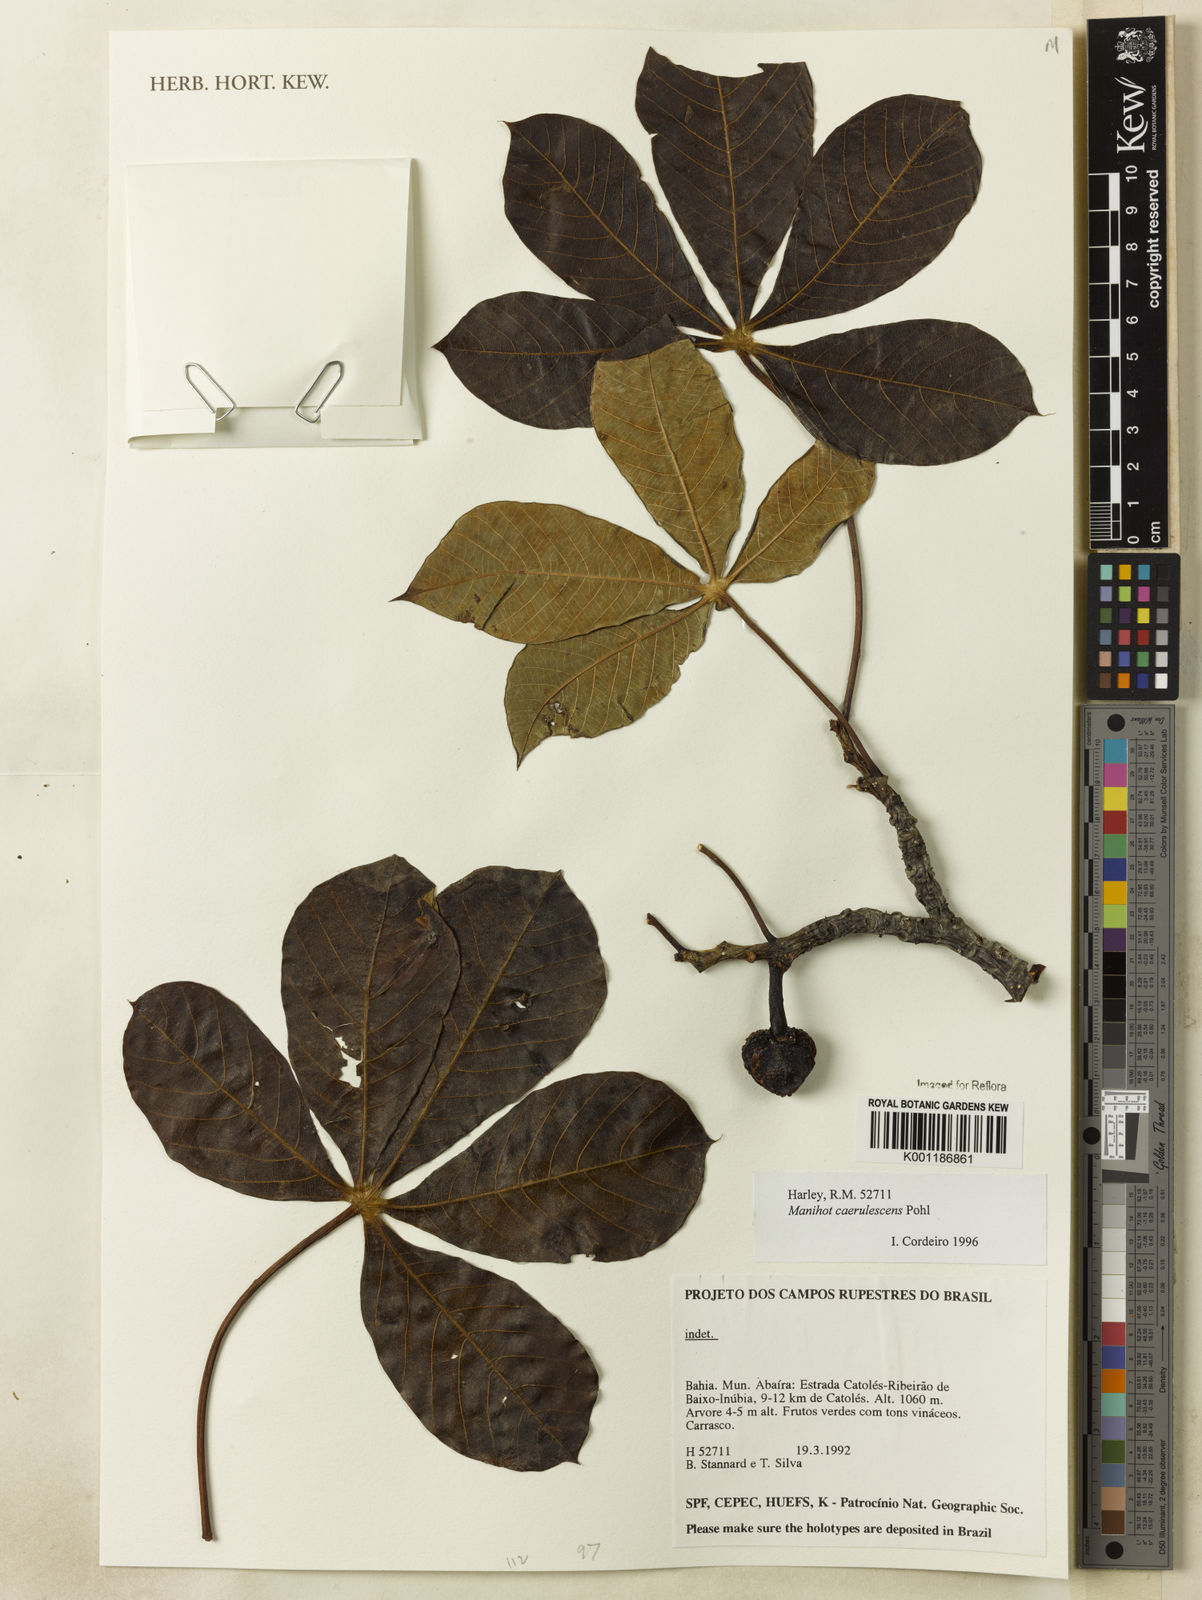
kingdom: Plantae
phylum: Tracheophyta
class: Magnoliopsida
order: Malpighiales
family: Euphorbiaceae
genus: Manihot
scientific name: Manihot caerulescens
